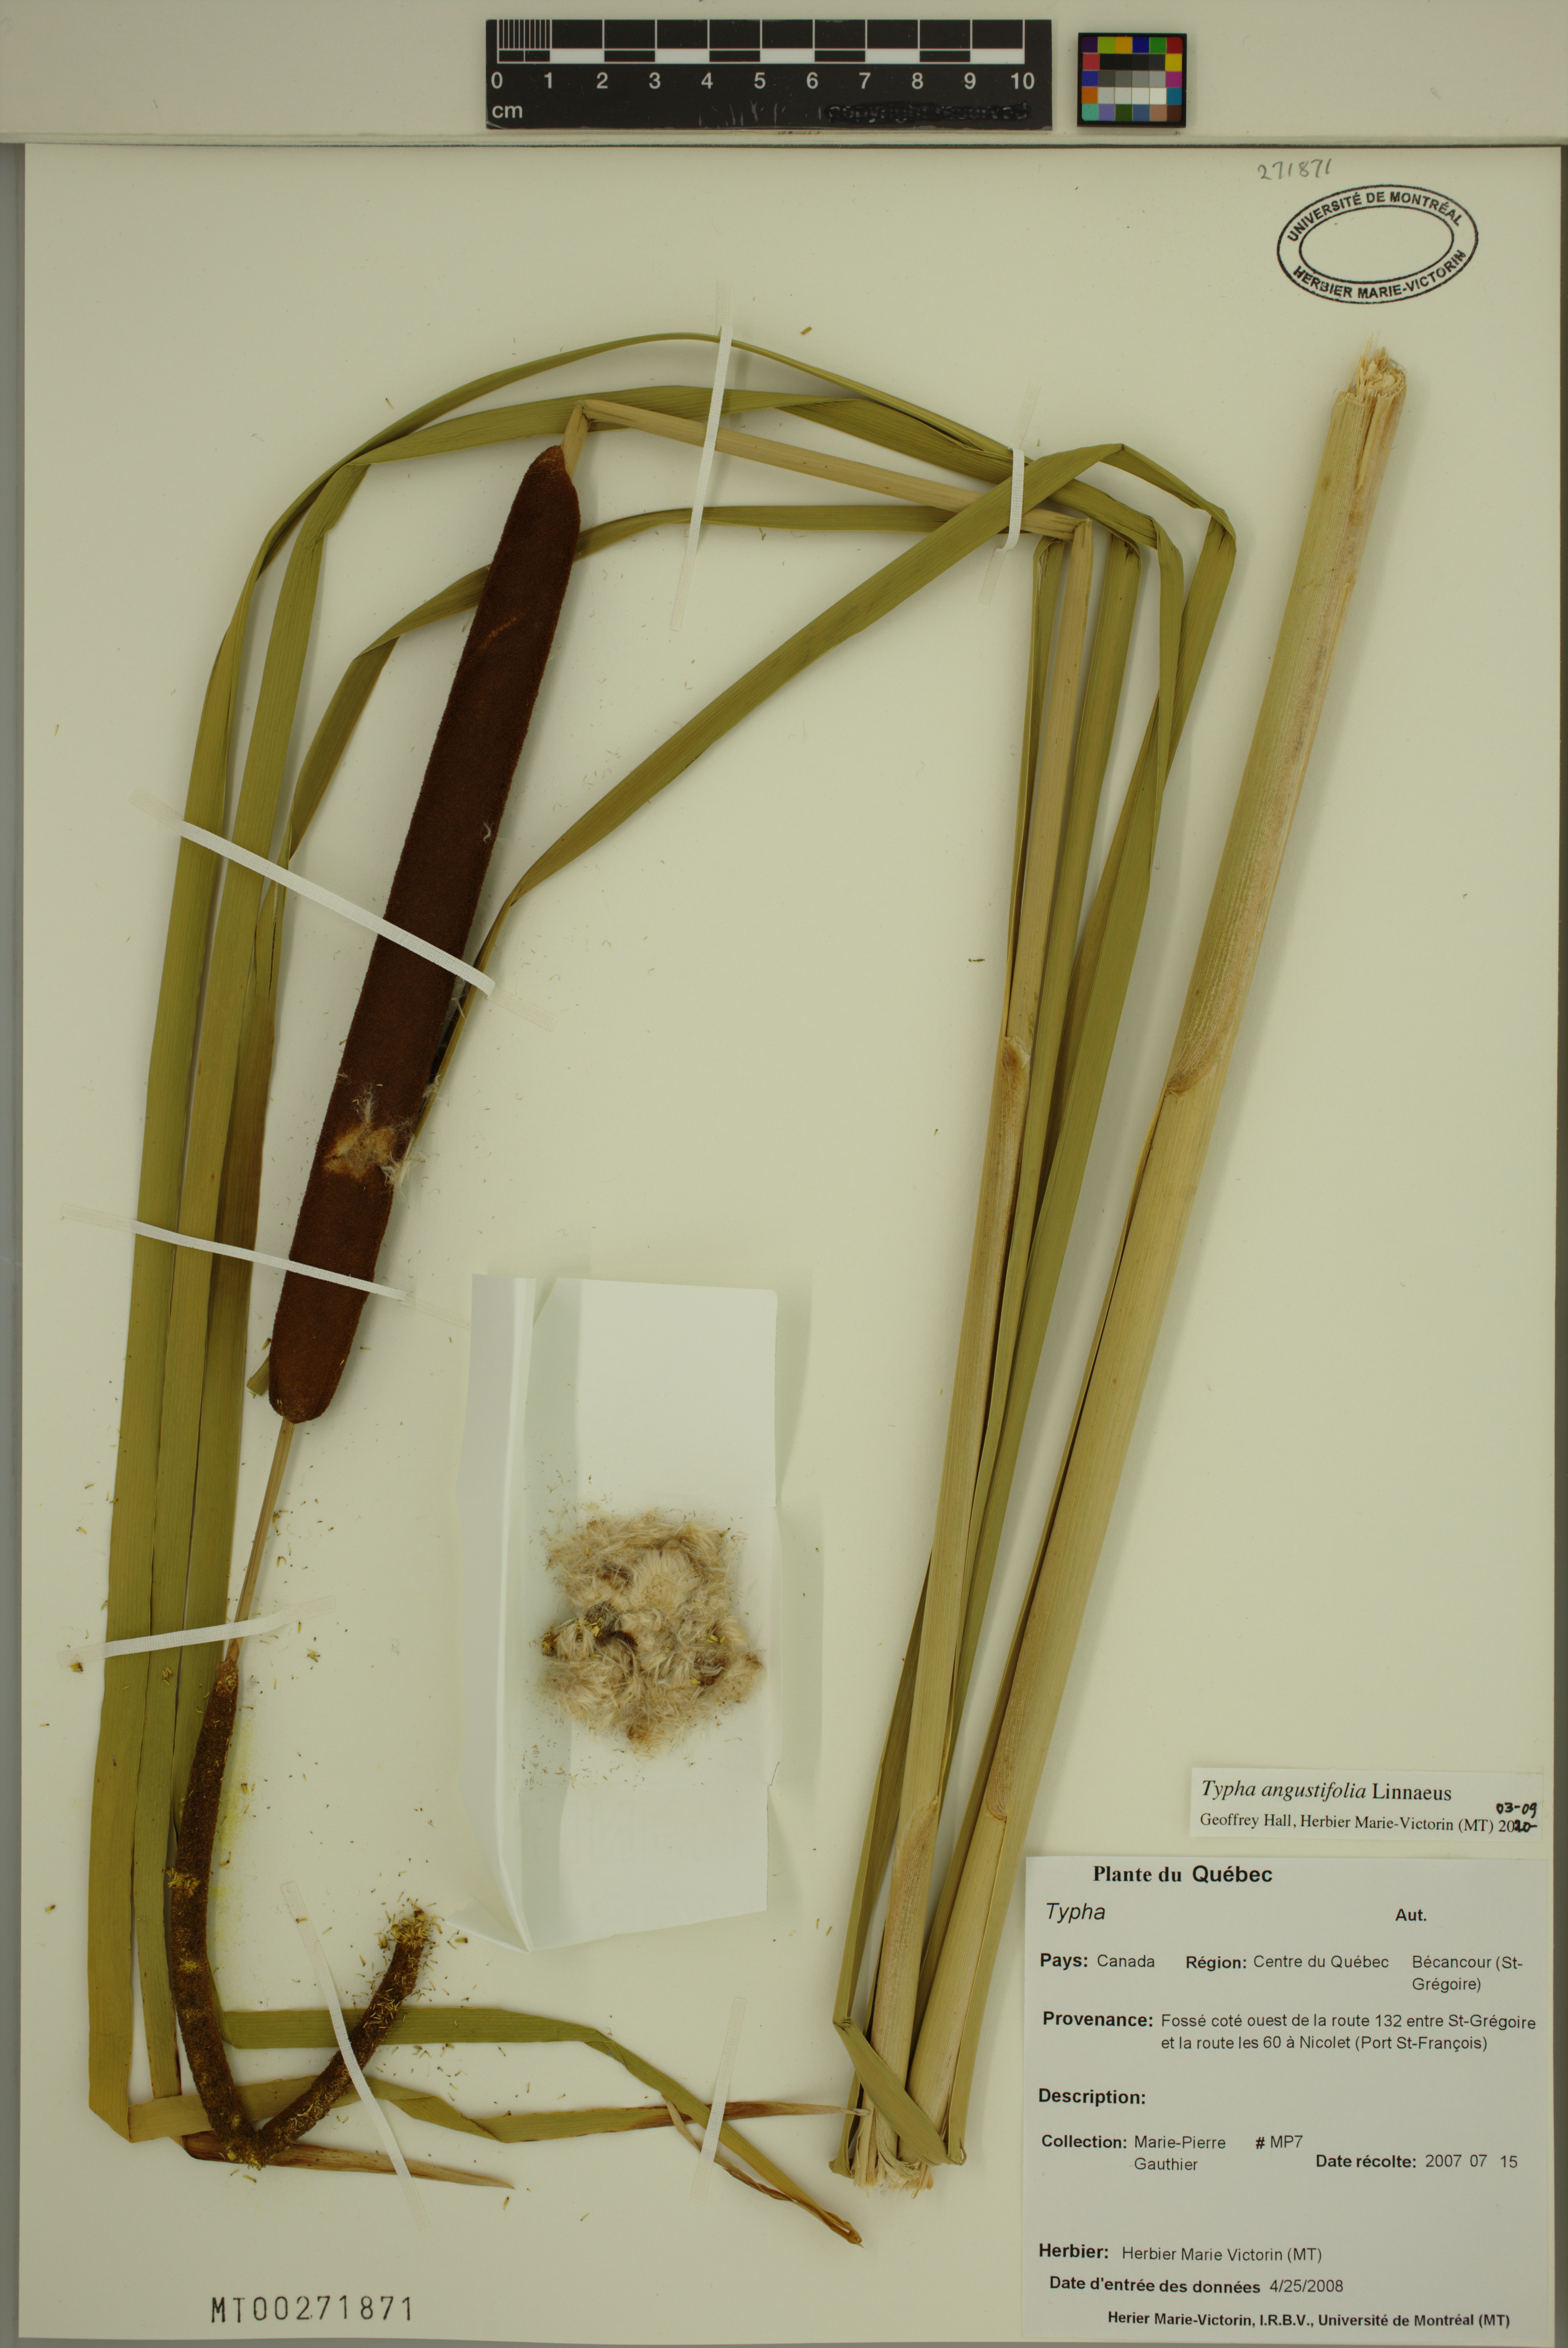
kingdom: Plantae
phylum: Tracheophyta
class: Liliopsida
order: Poales
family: Typhaceae
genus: Typha
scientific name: Typha angustifolia
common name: Lesser bulrush
